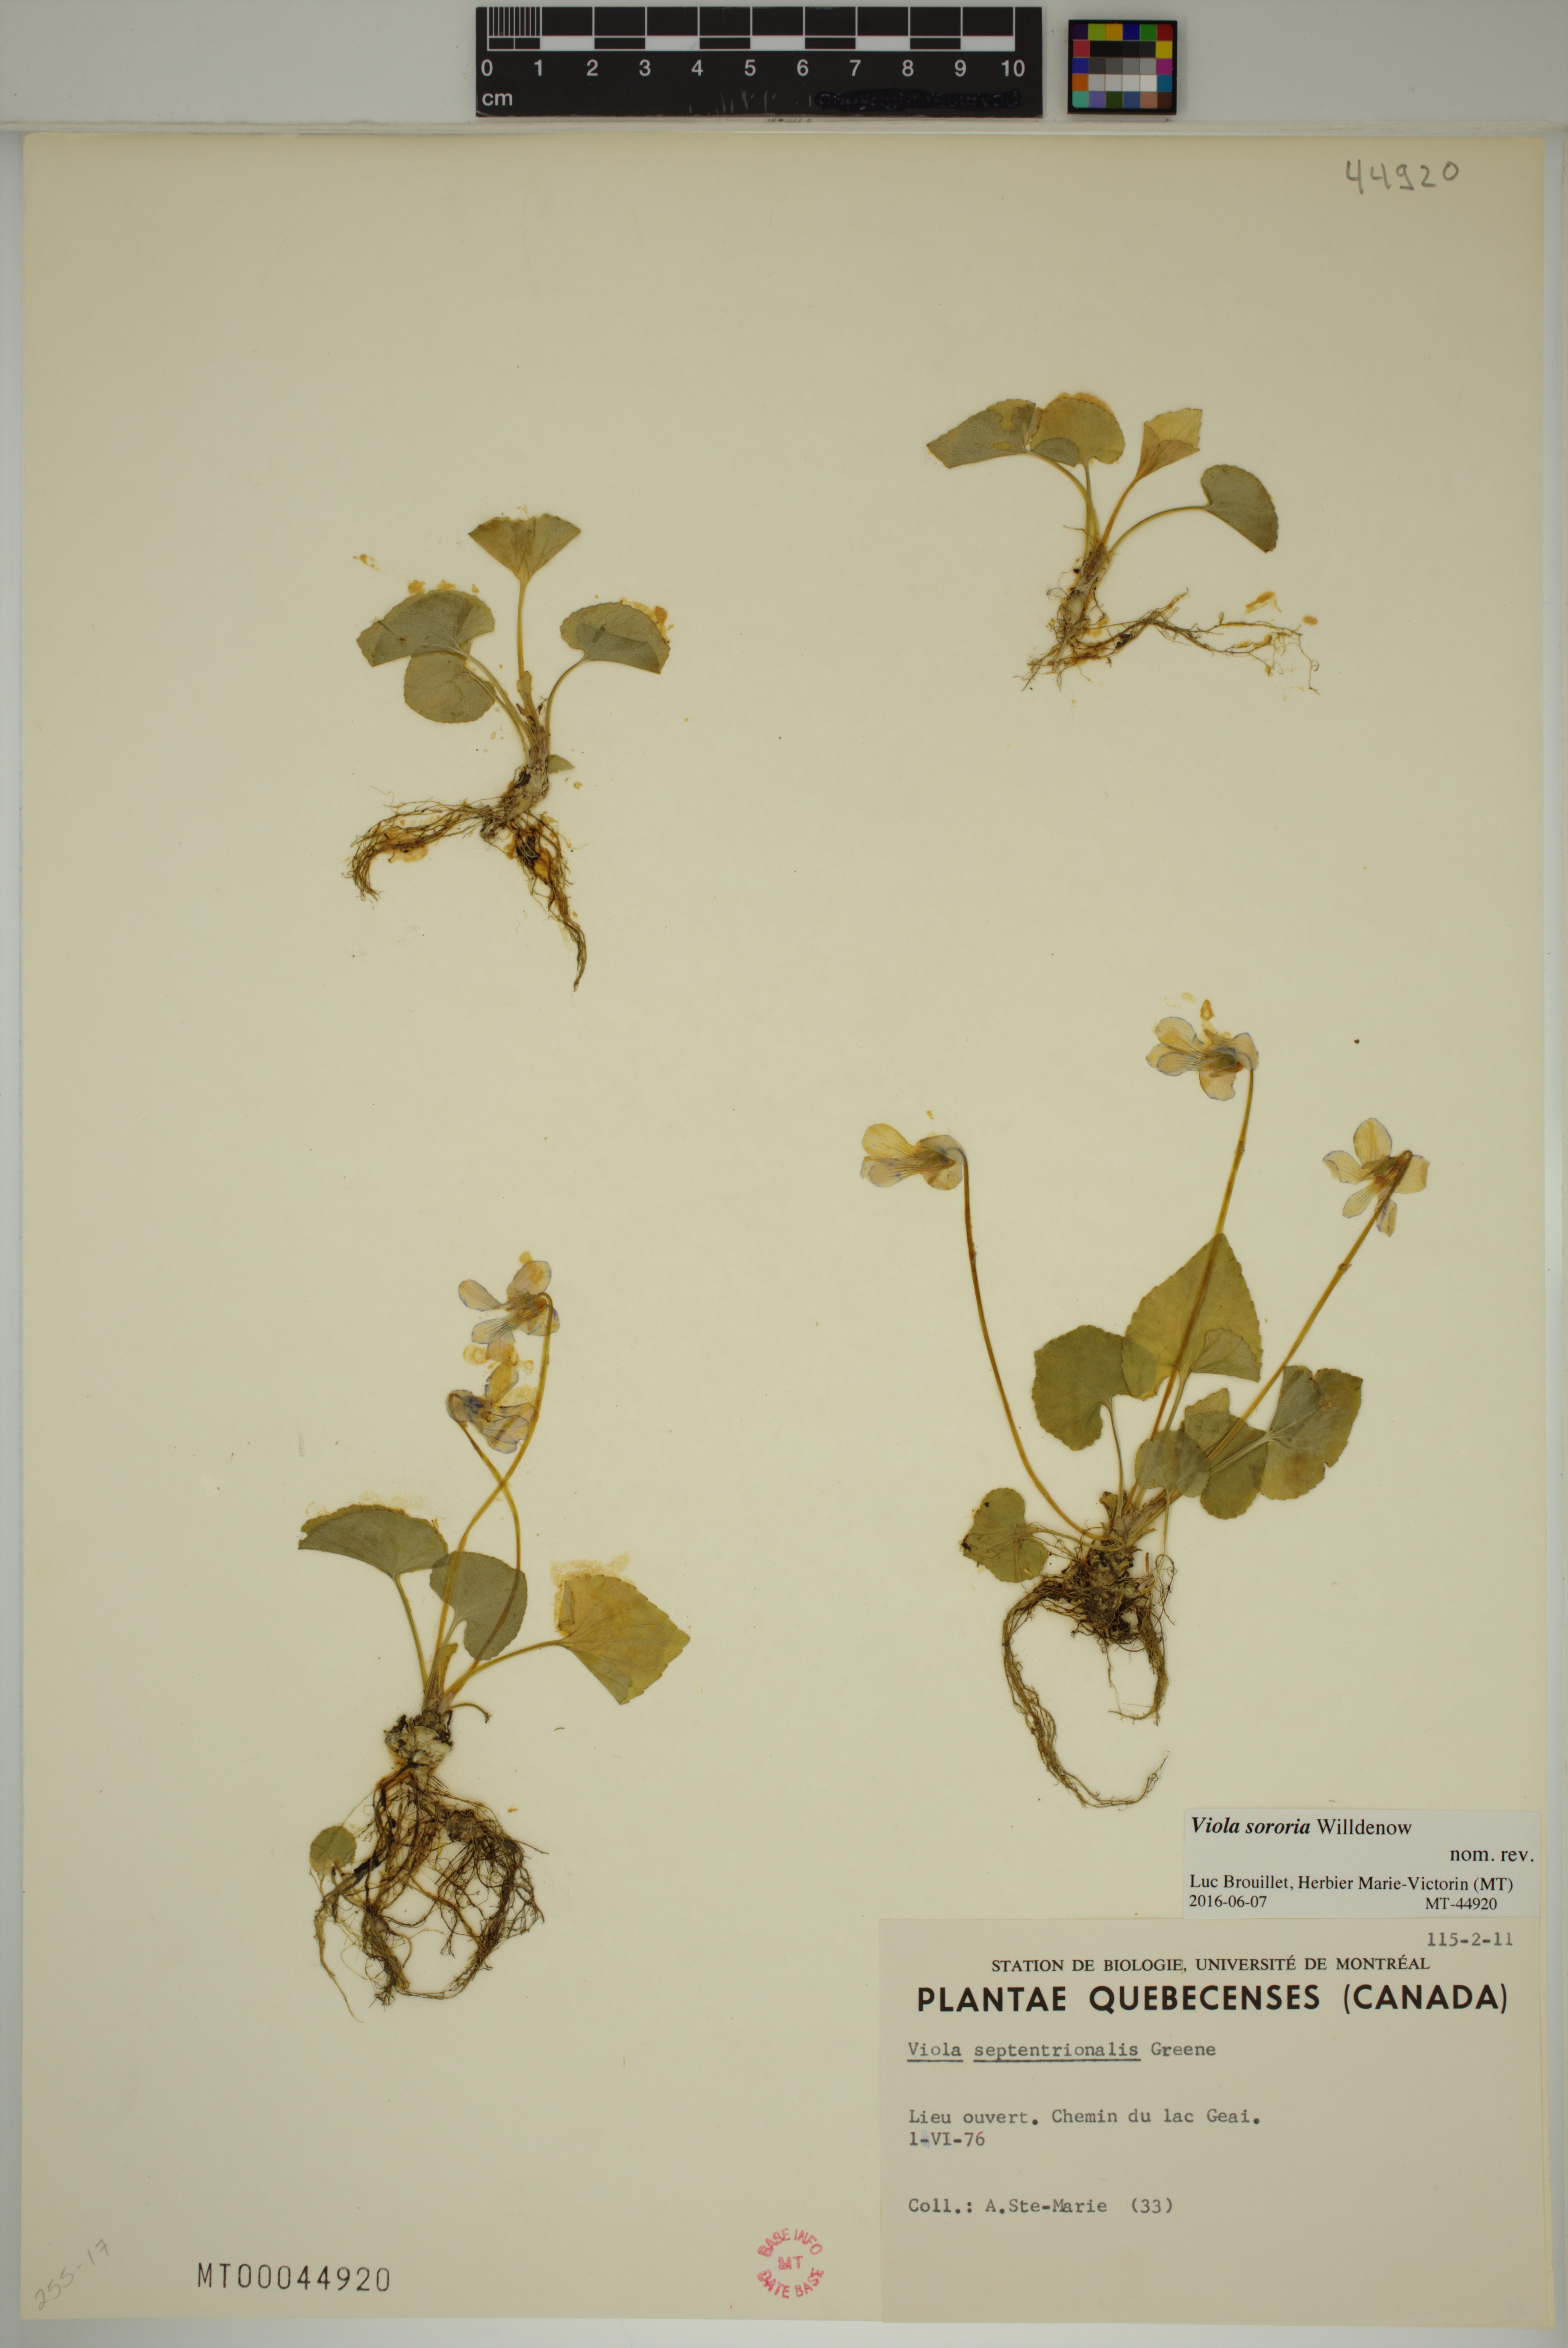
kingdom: Plantae
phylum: Tracheophyta
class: Magnoliopsida
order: Malpighiales
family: Violaceae
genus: Viola
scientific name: Viola sororia
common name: Dooryard violet
